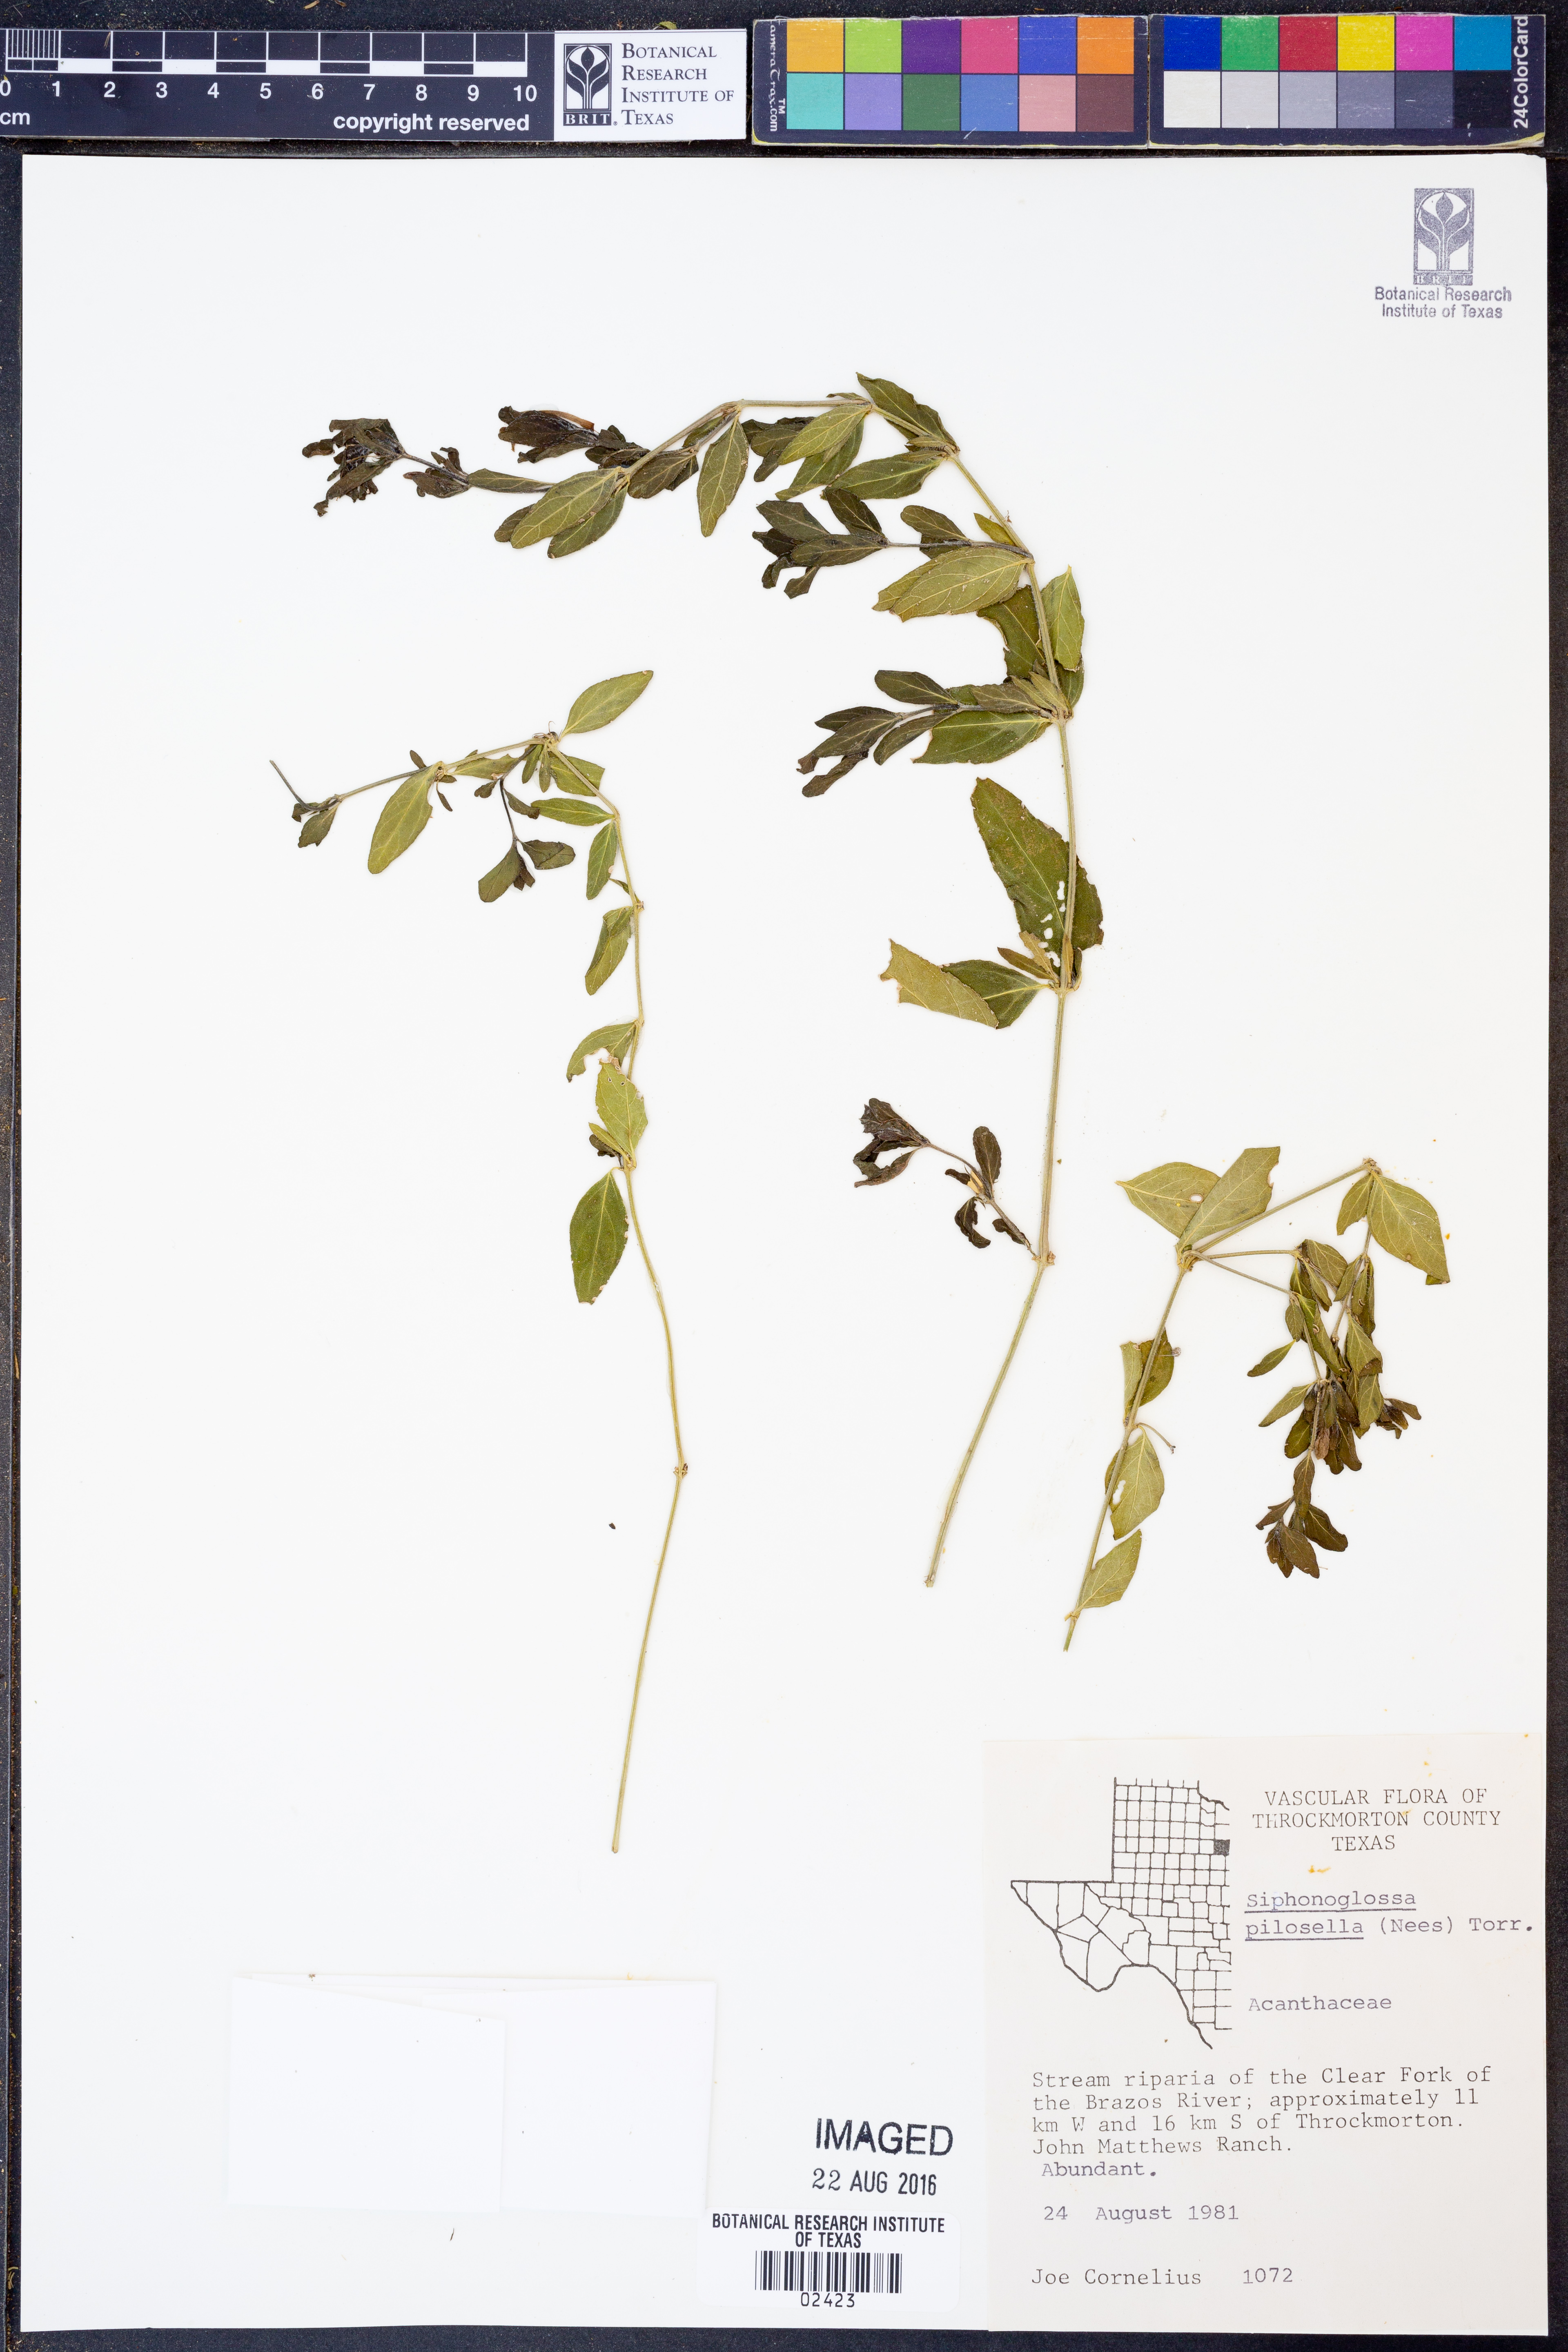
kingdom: Plantae
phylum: Tracheophyta
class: Magnoliopsida
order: Lamiales
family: Acanthaceae
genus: Justicia
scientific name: Justicia pilosella
